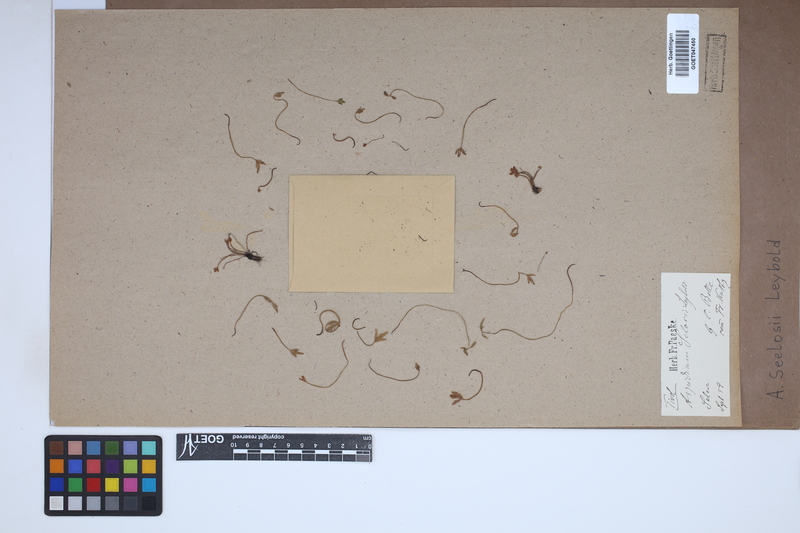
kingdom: Plantae
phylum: Tracheophyta
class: Polypodiopsida
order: Polypodiales
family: Aspleniaceae
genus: Asplenium
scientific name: Asplenium seelosii
